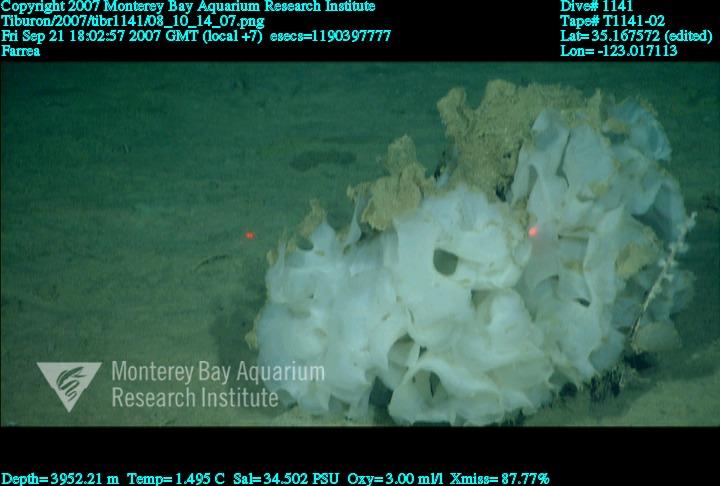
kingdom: Animalia
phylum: Porifera
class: Hexactinellida
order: Sceptrulophora
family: Farreidae
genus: Farrea
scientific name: Farrea
